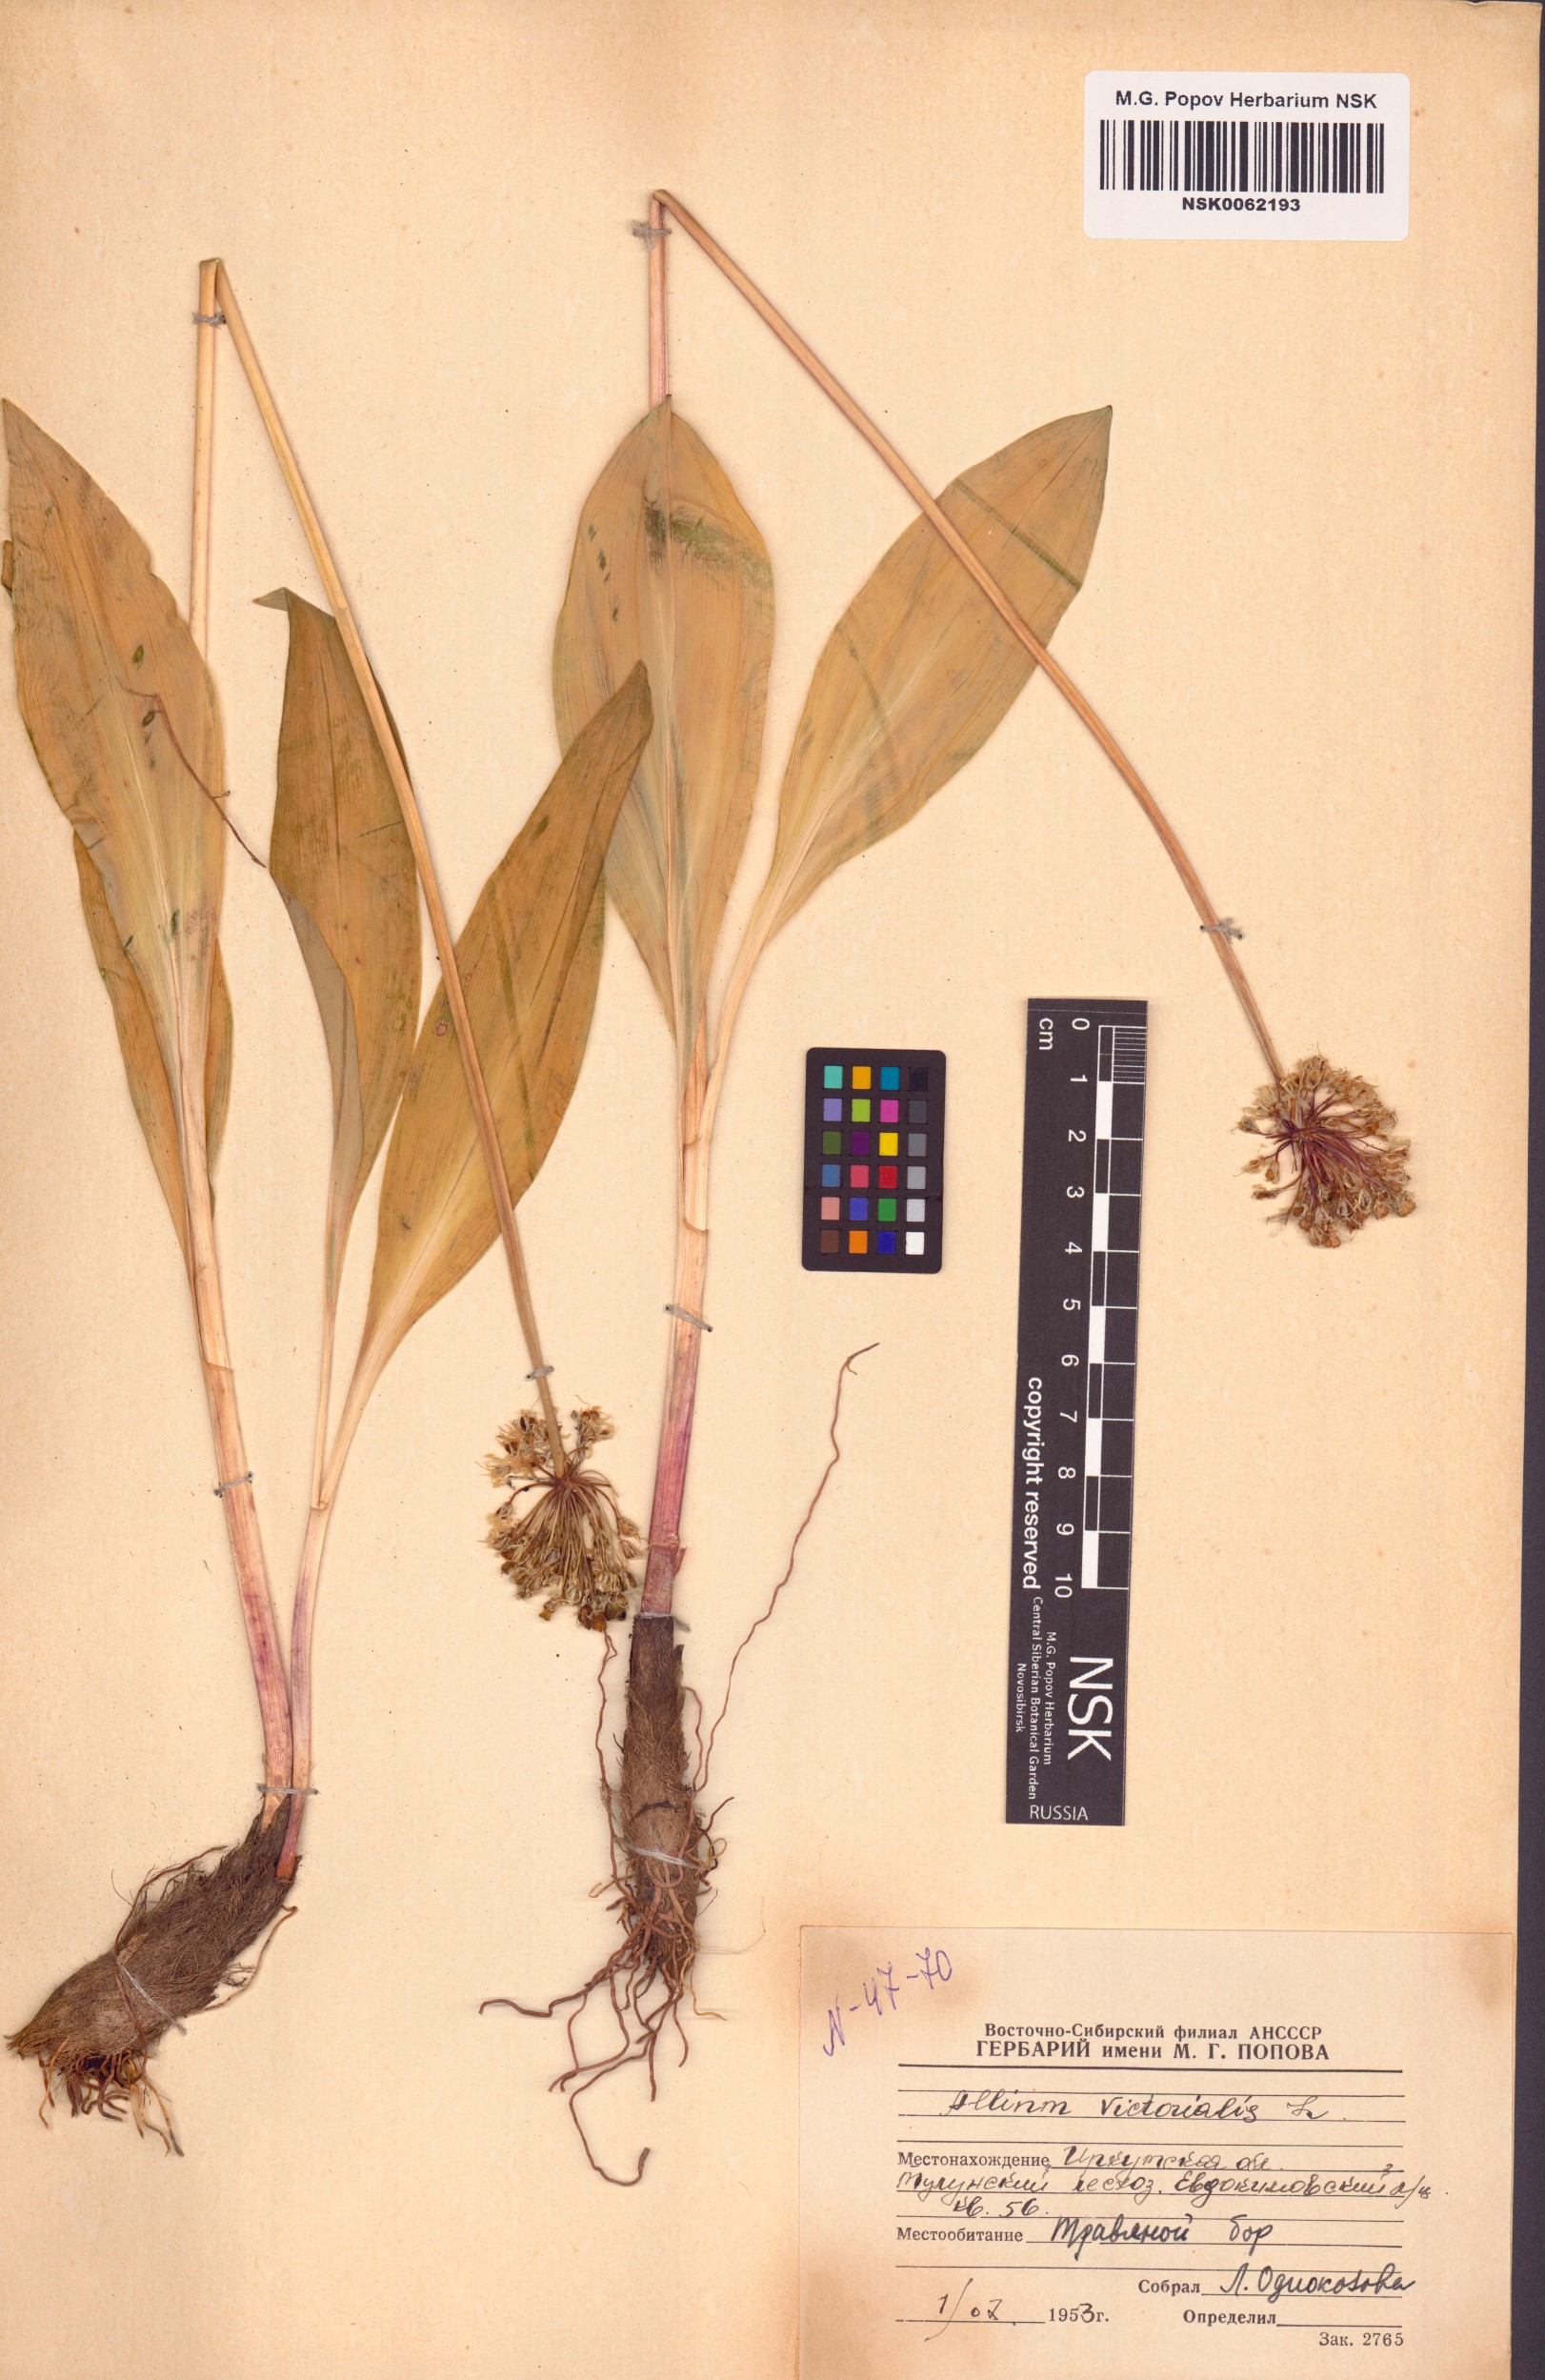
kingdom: Plantae
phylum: Tracheophyta
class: Liliopsida
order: Asparagales
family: Amaryllidaceae
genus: Allium
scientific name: Allium victorialis
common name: Alpine leek
